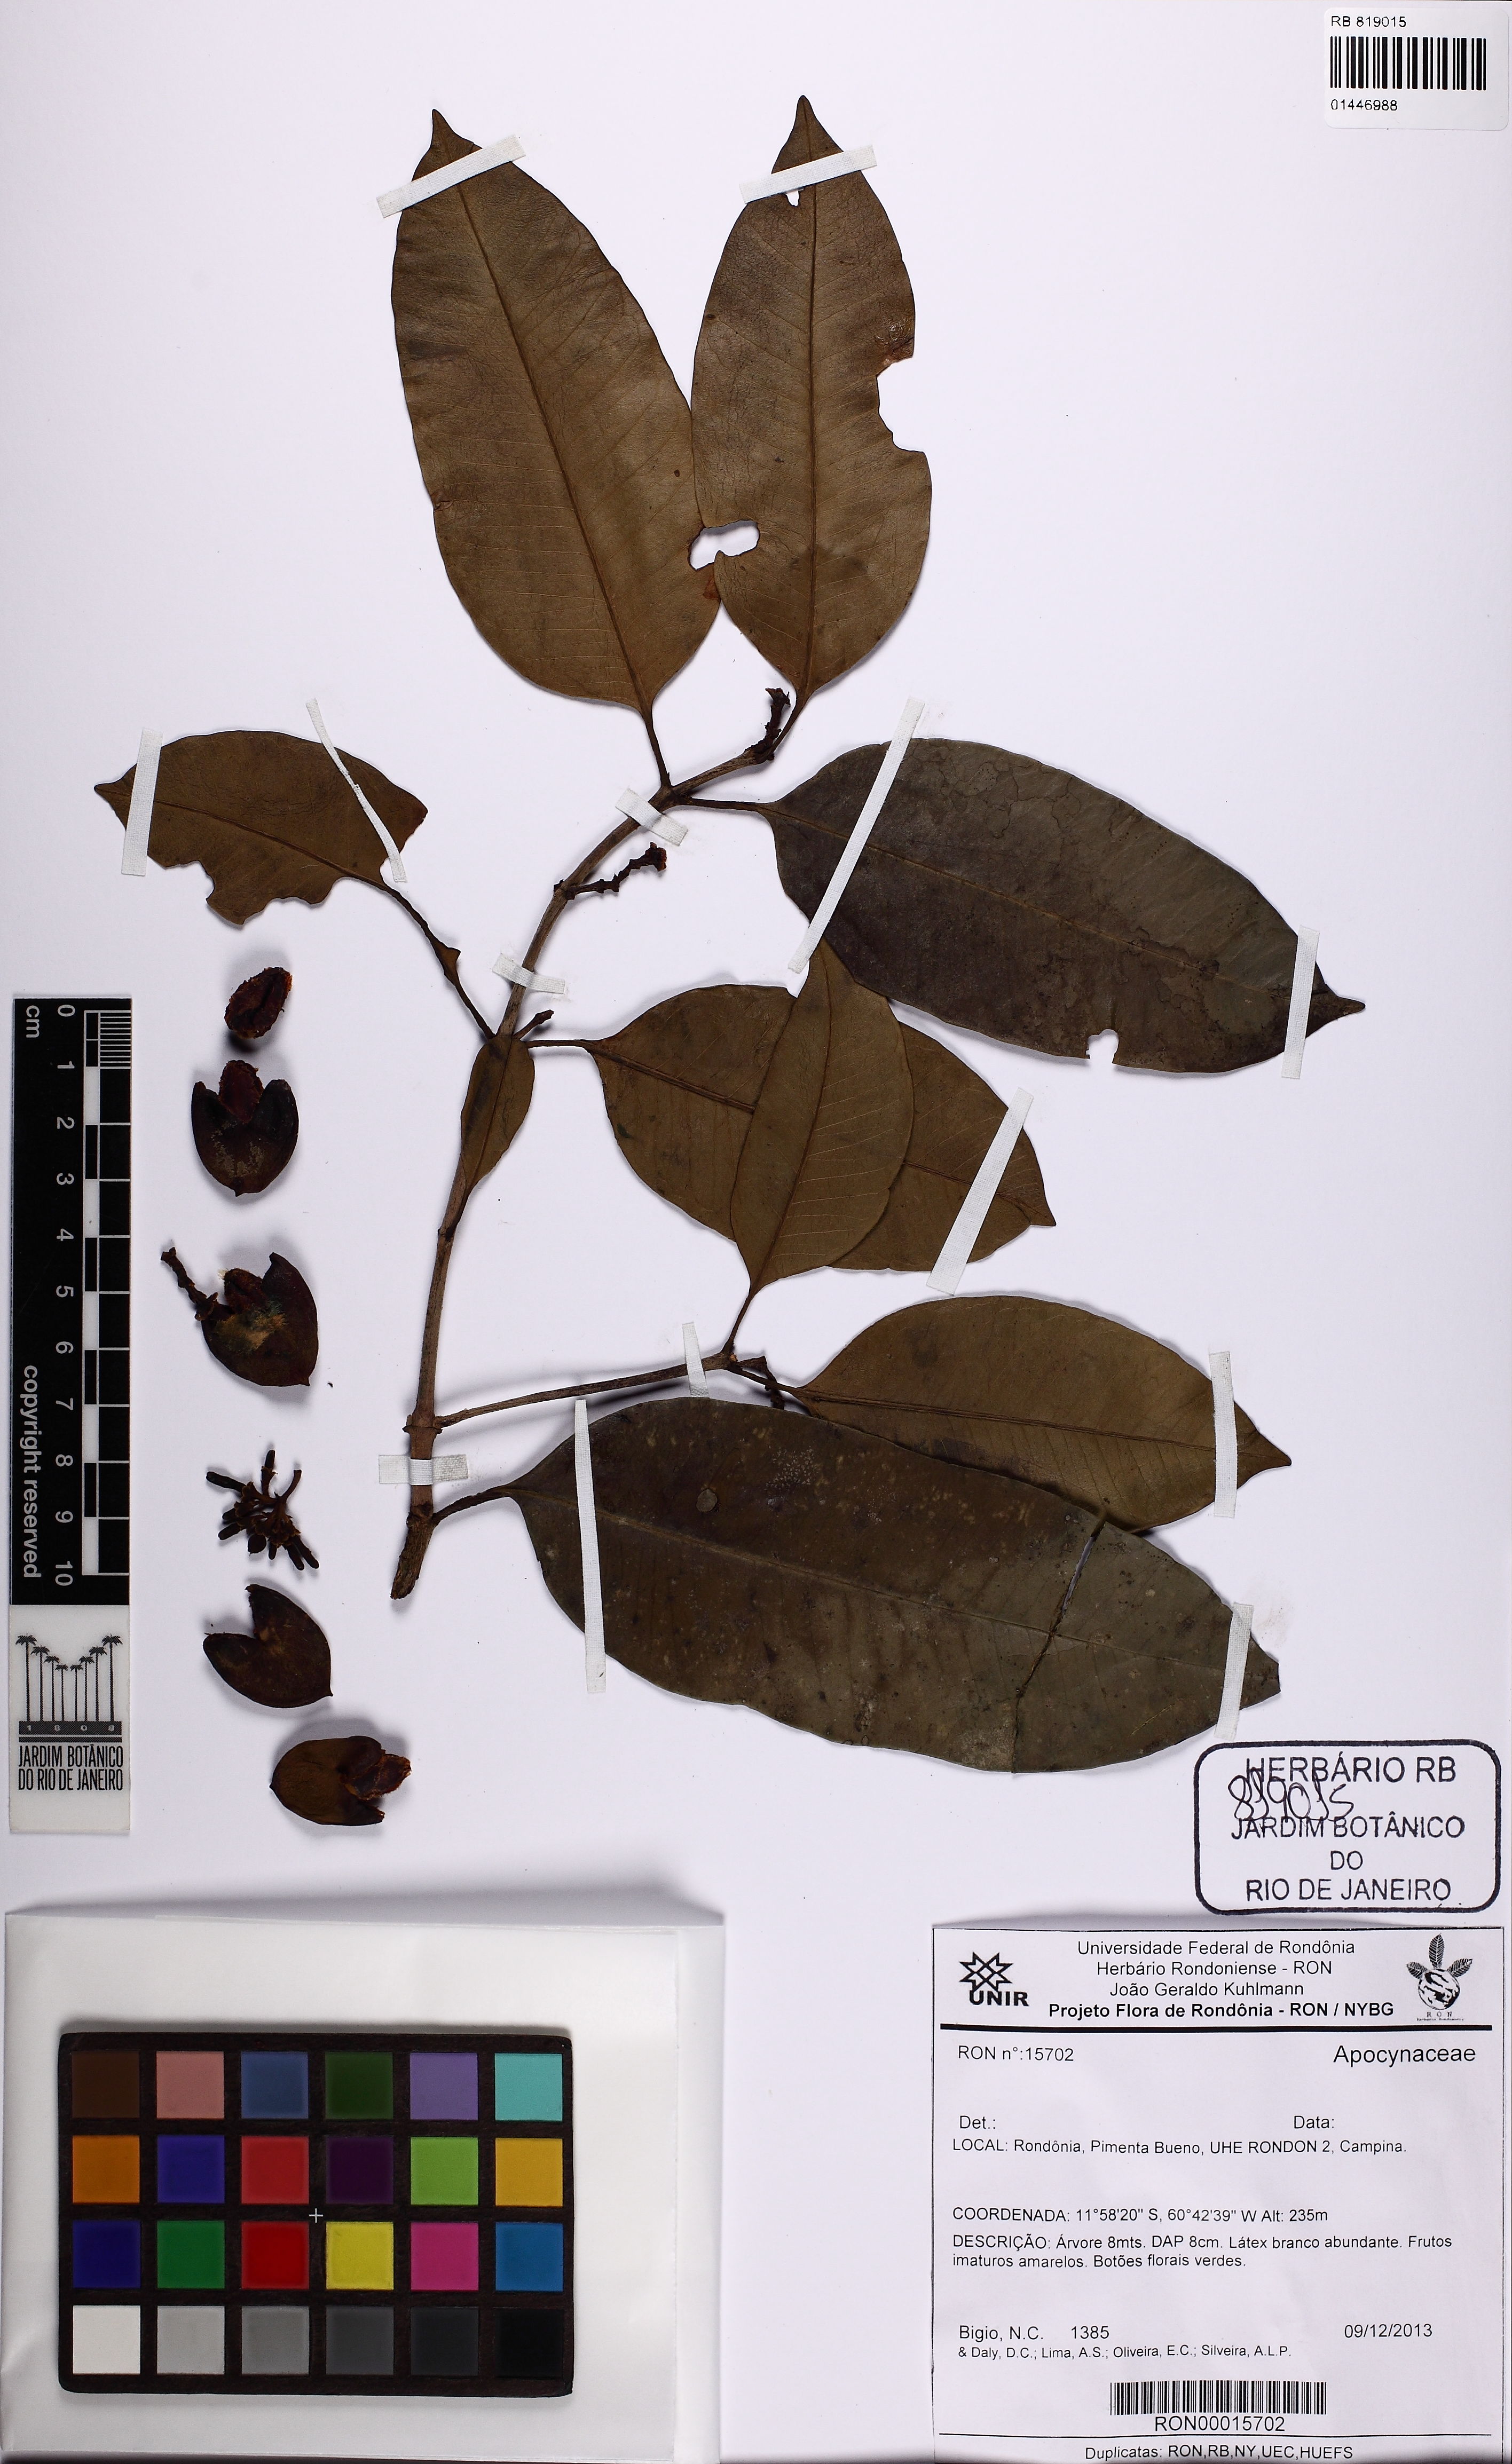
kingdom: Plantae
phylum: Tracheophyta
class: Magnoliopsida
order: Gentianales
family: Apocynaceae
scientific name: Apocynaceae
